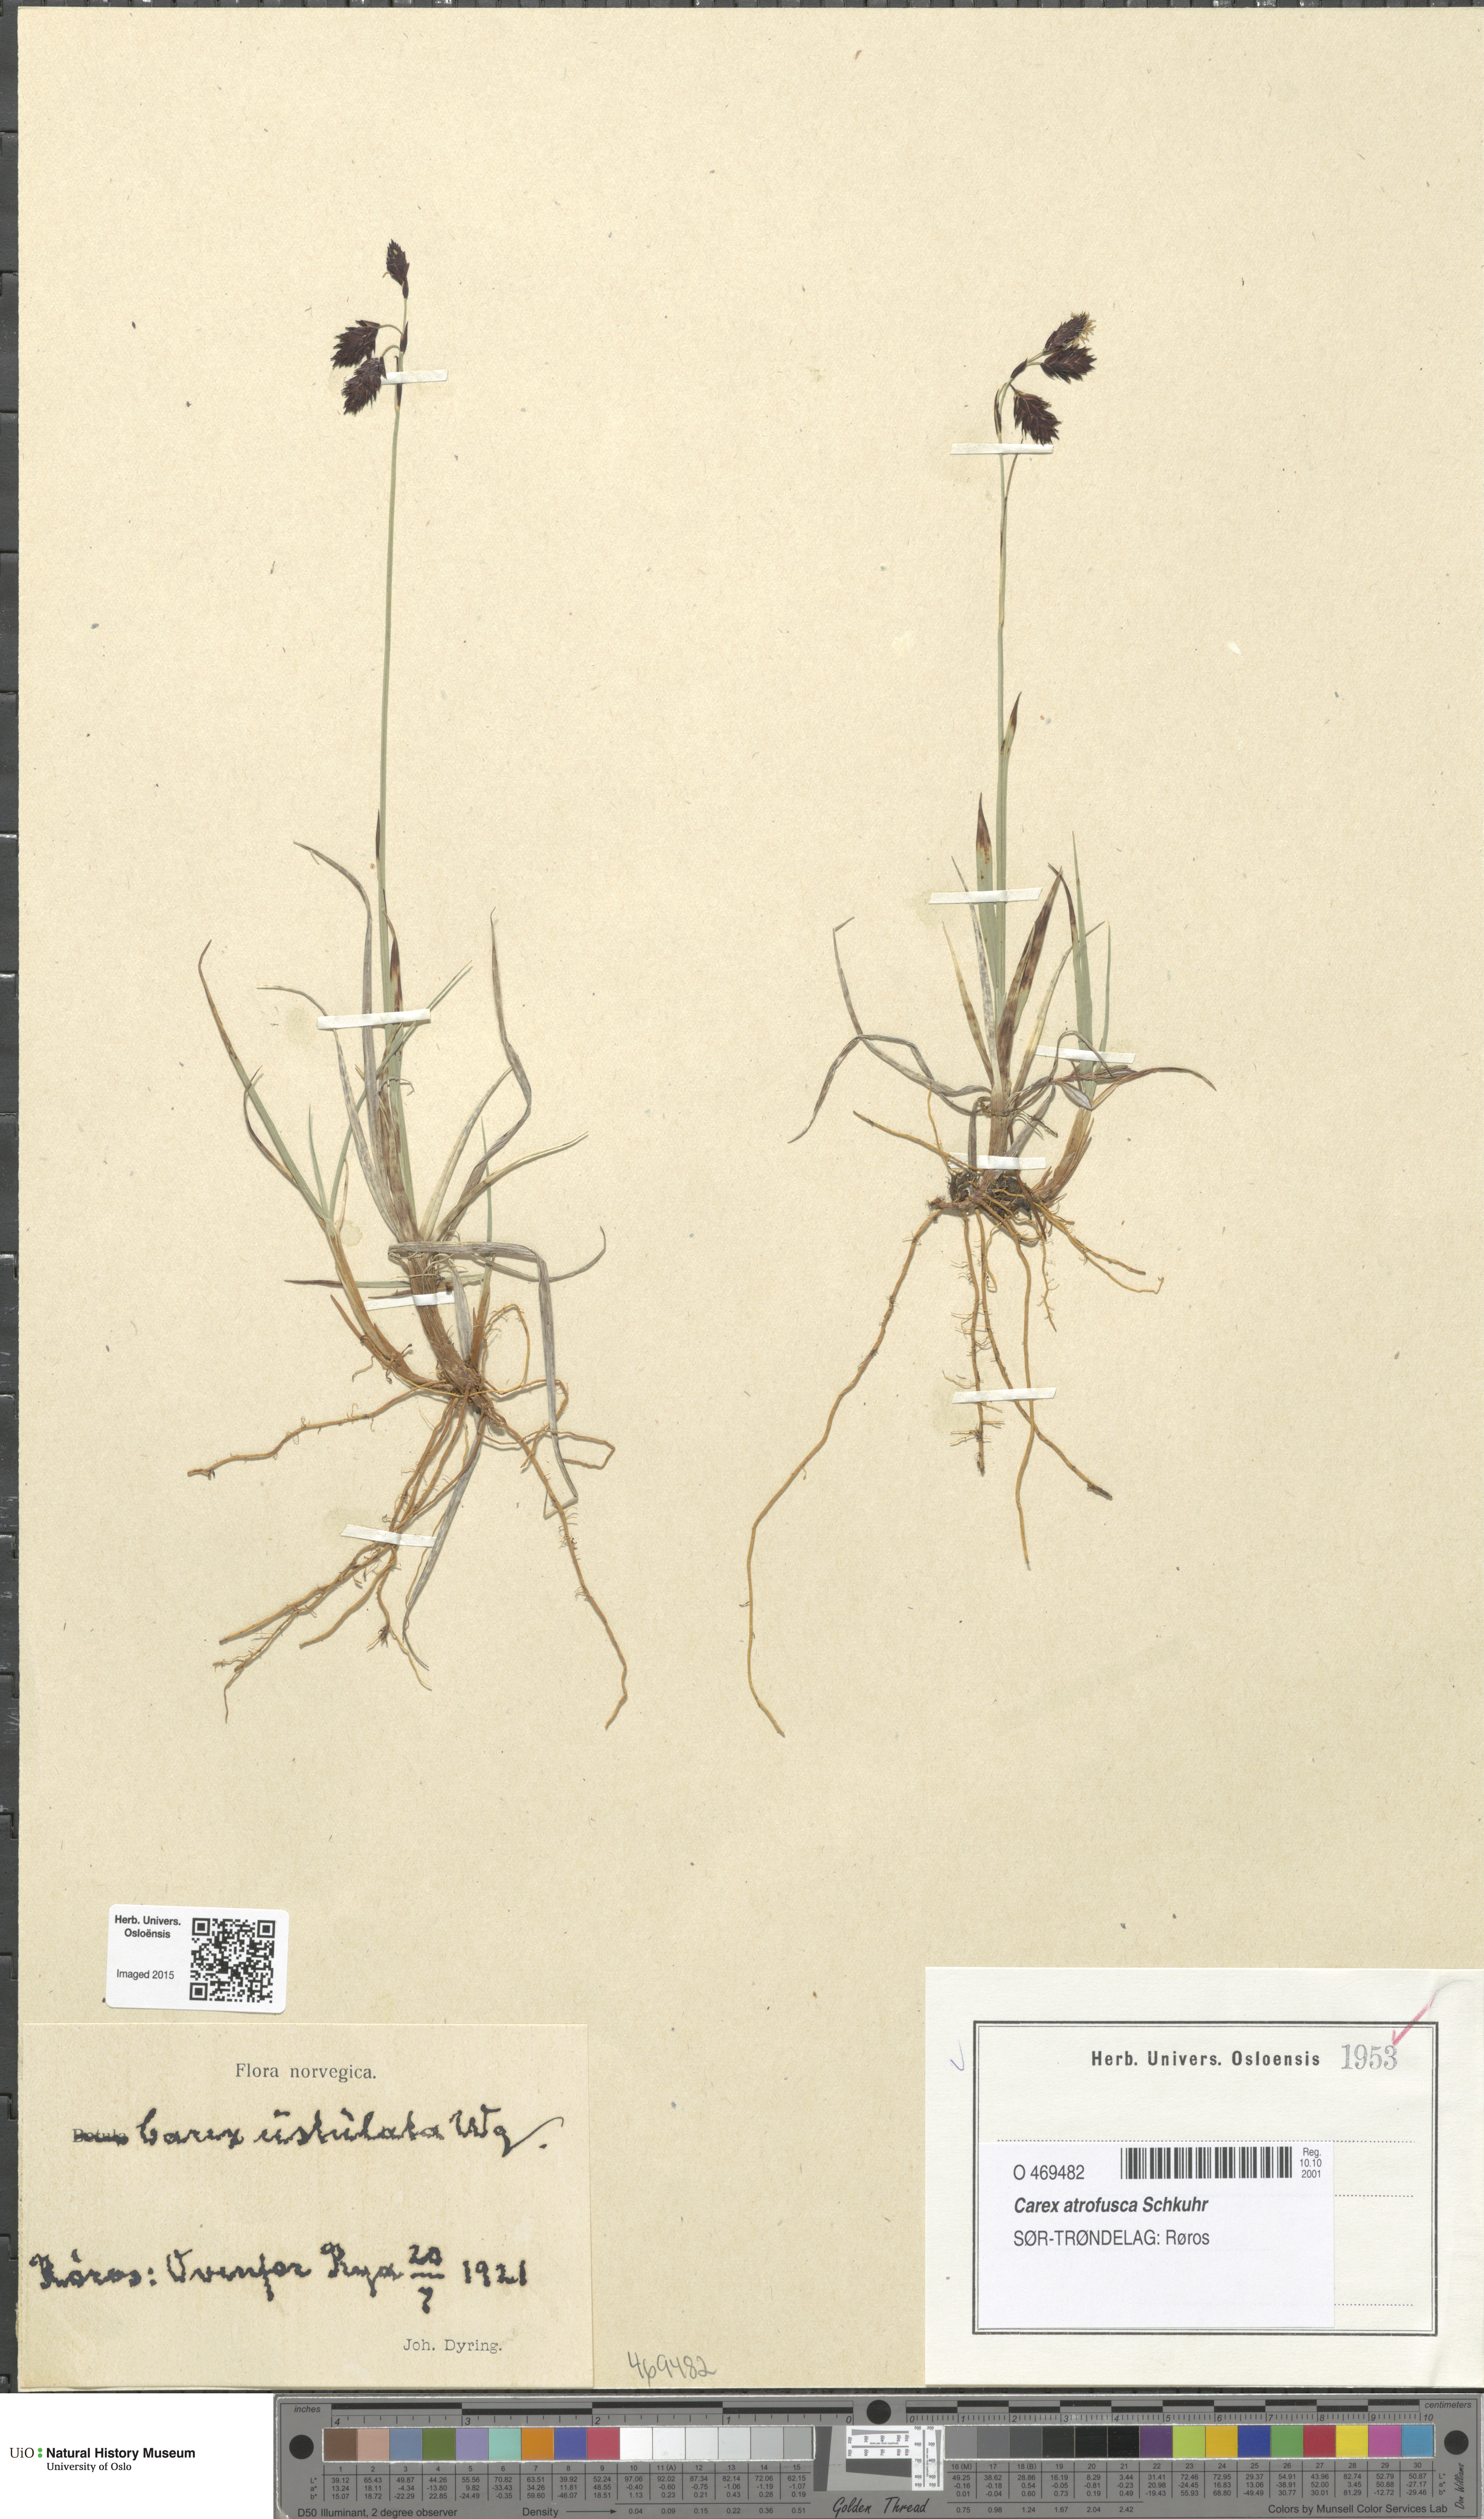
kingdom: Plantae
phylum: Tracheophyta
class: Liliopsida
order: Poales
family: Cyperaceae
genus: Carex
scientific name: Carex atrofusca
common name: Scorched alpine-sedge
